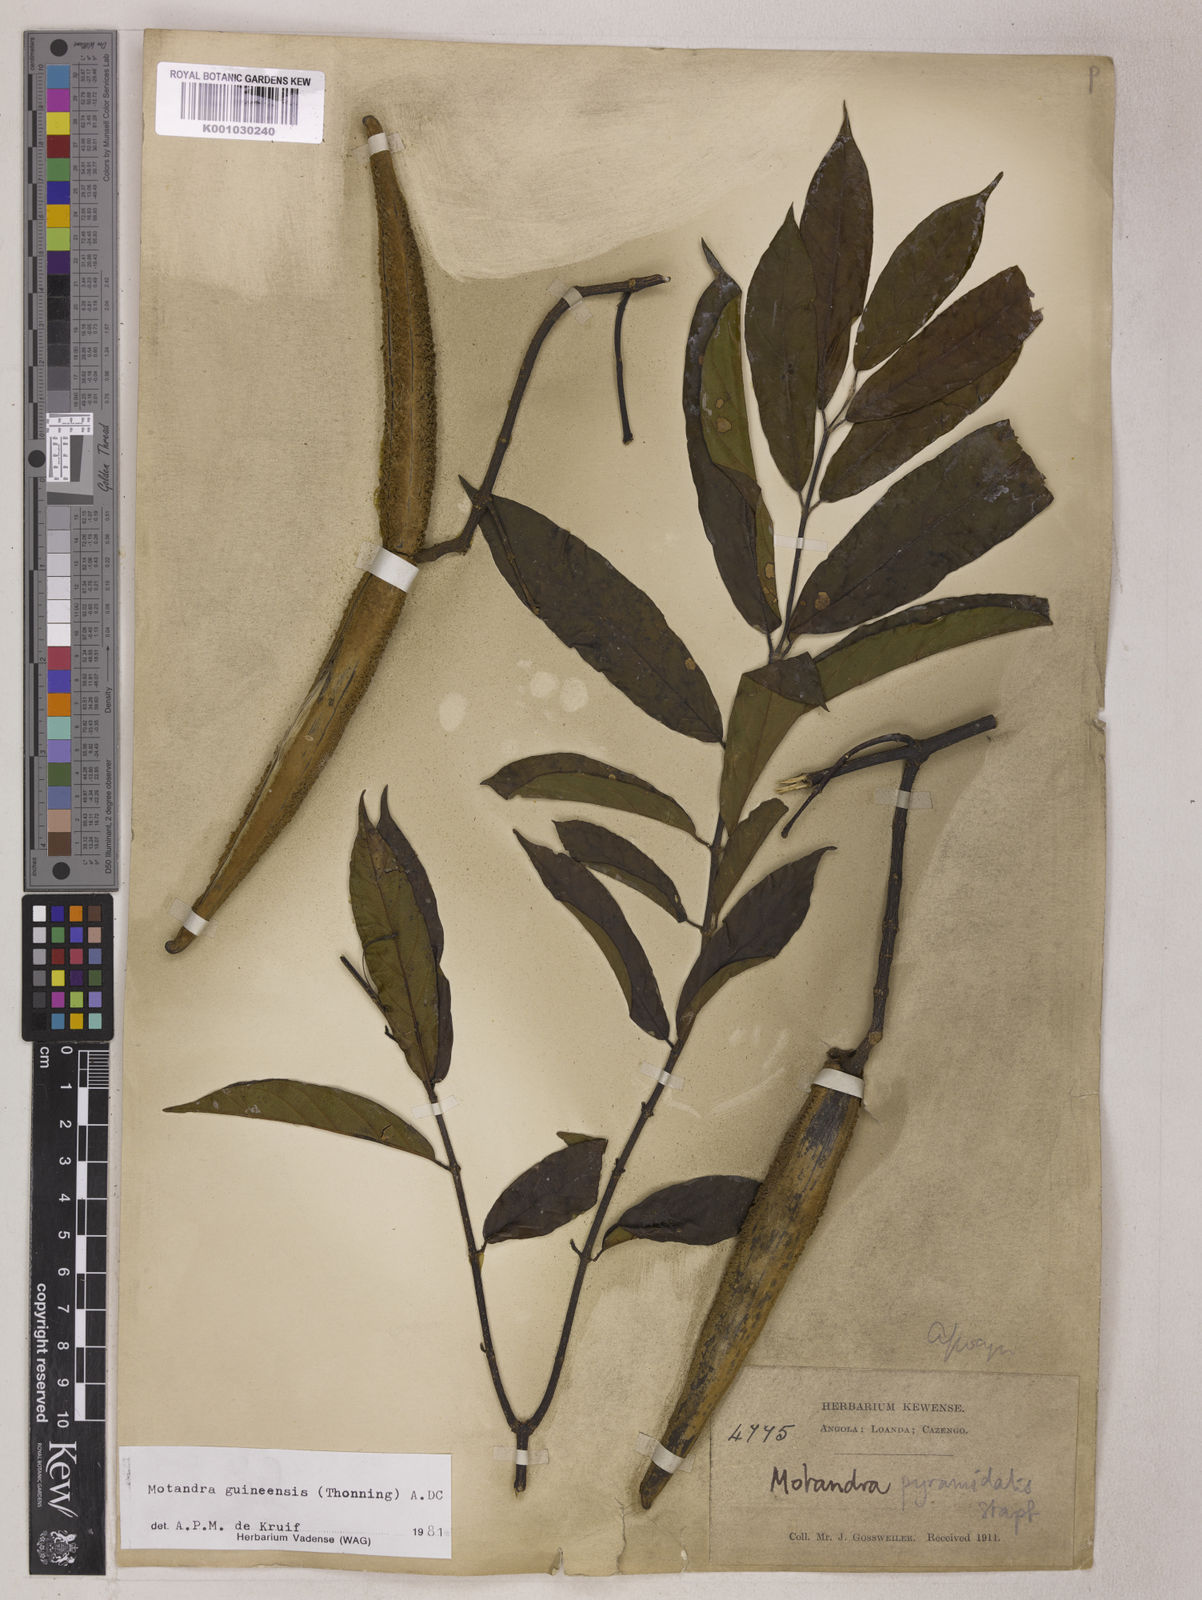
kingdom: Plantae
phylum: Tracheophyta
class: Magnoliopsida
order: Gentianales
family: Apocynaceae
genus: Motandra
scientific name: Motandra paniculata
